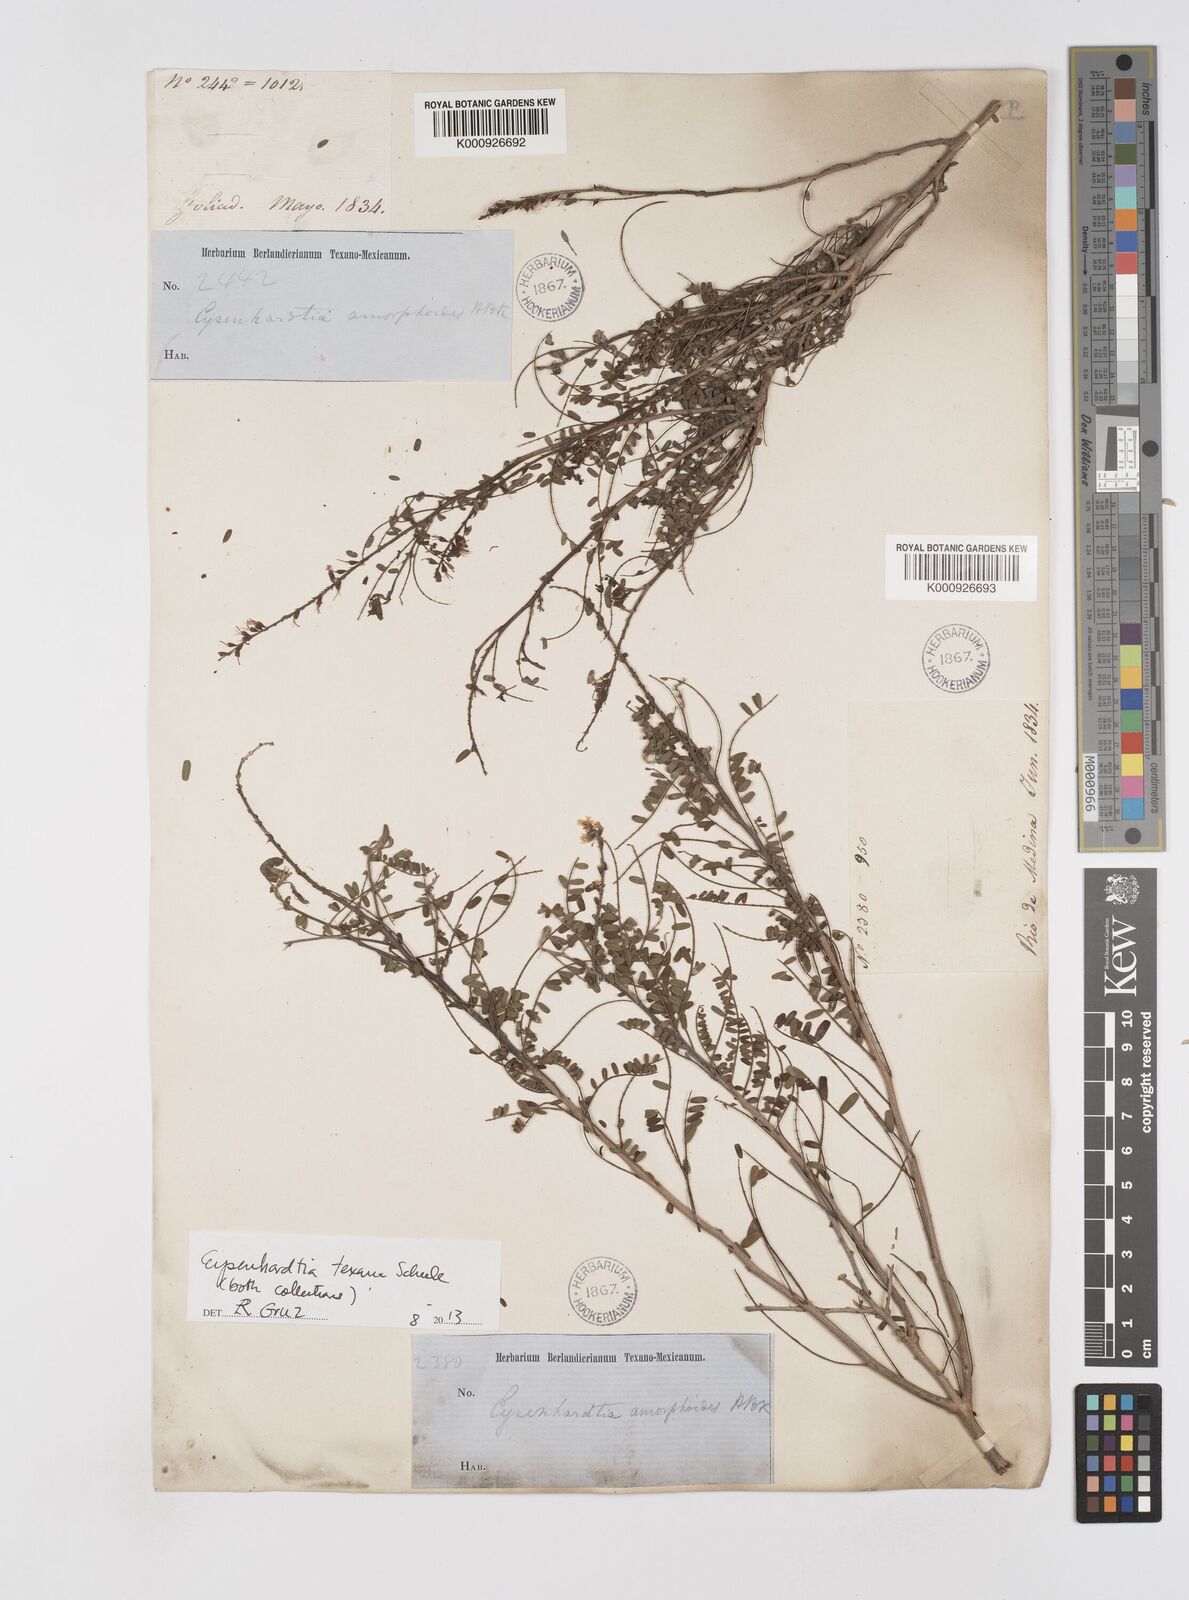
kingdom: Plantae
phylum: Tracheophyta
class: Magnoliopsida
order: Fabales
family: Fabaceae
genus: Eysenhardtia
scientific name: Eysenhardtia texana
